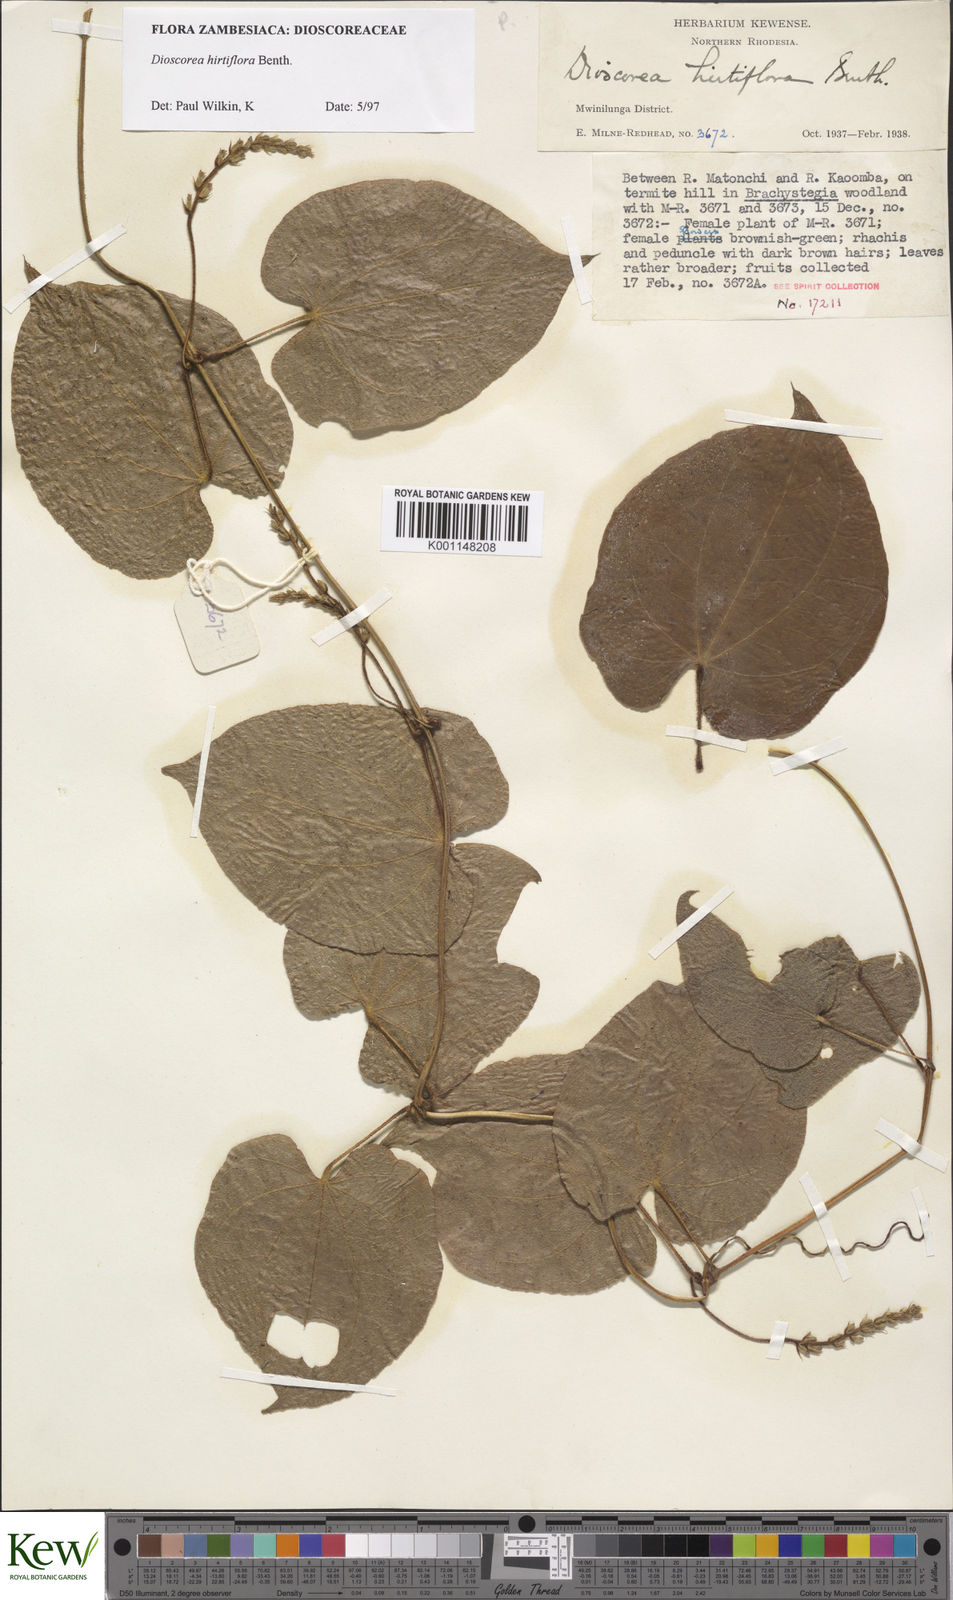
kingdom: Plantae
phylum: Tracheophyta
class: Liliopsida
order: Dioscoreales
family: Dioscoreaceae
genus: Dioscorea
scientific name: Dioscorea hirtiflora
